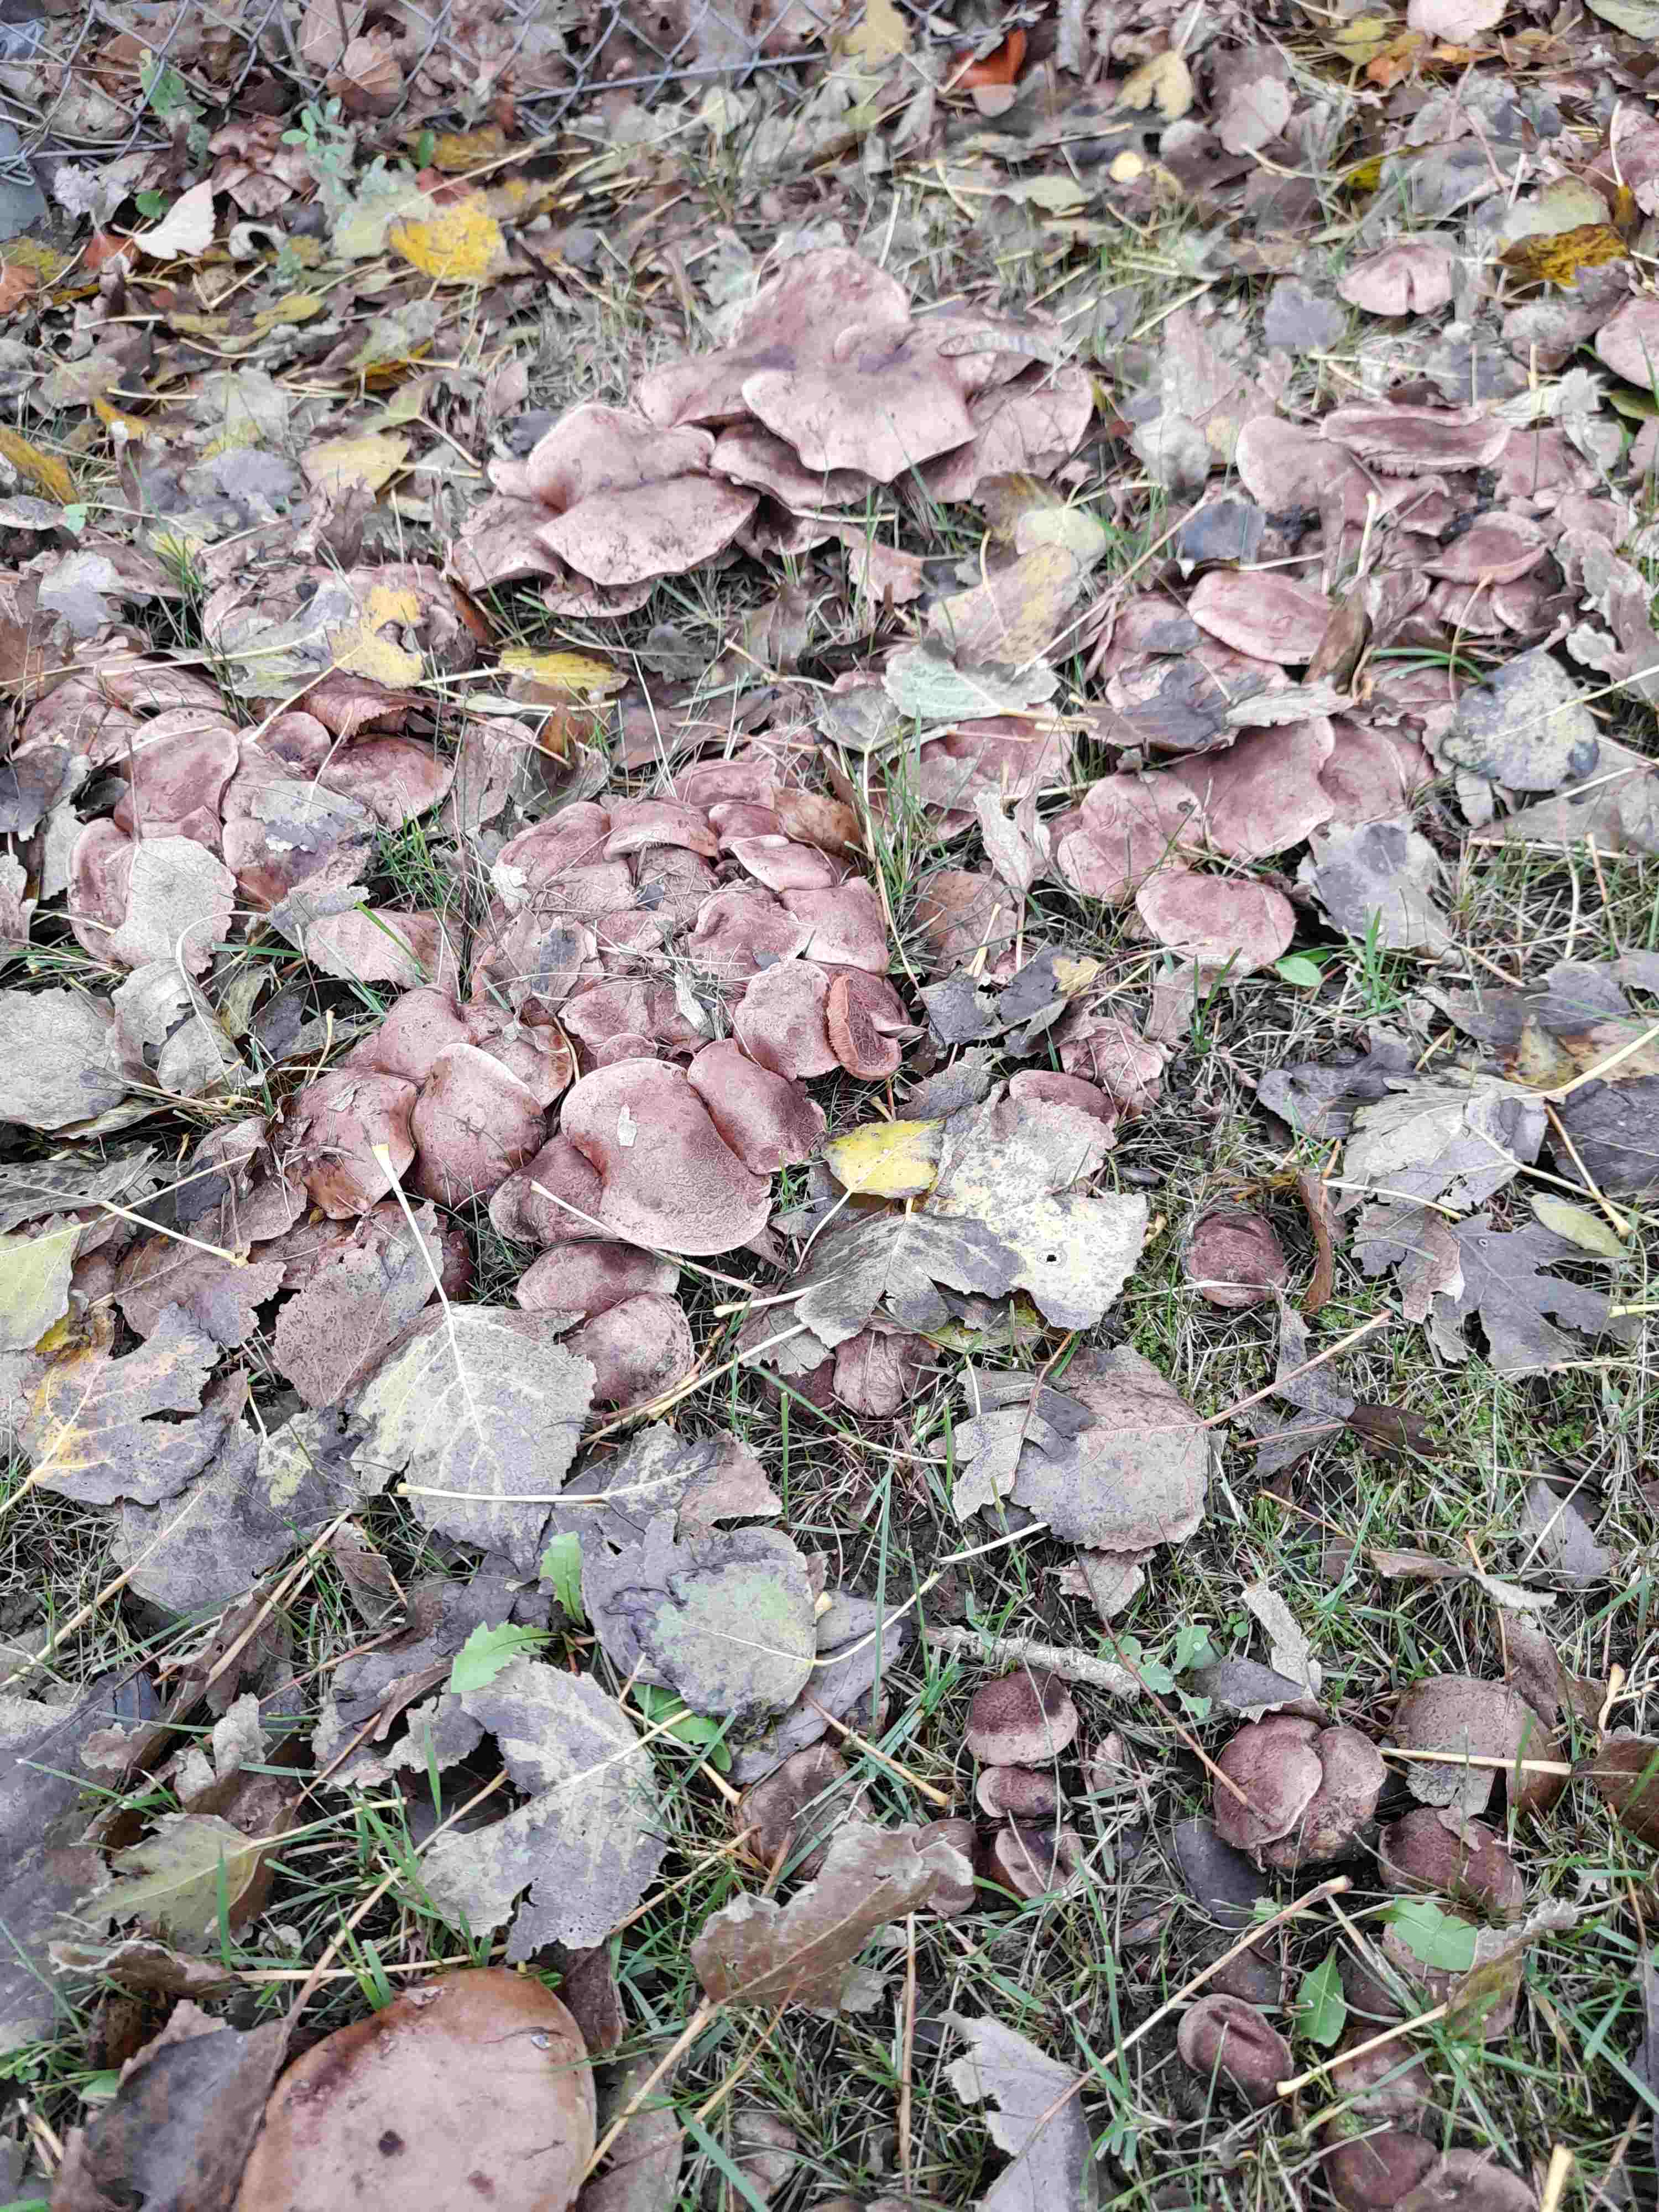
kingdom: Fungi
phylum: Basidiomycota
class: Agaricomycetes
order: Agaricales
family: Tricholomataceae
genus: Tricholoma
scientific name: Tricholoma populinum
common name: poppel-ridderhat
